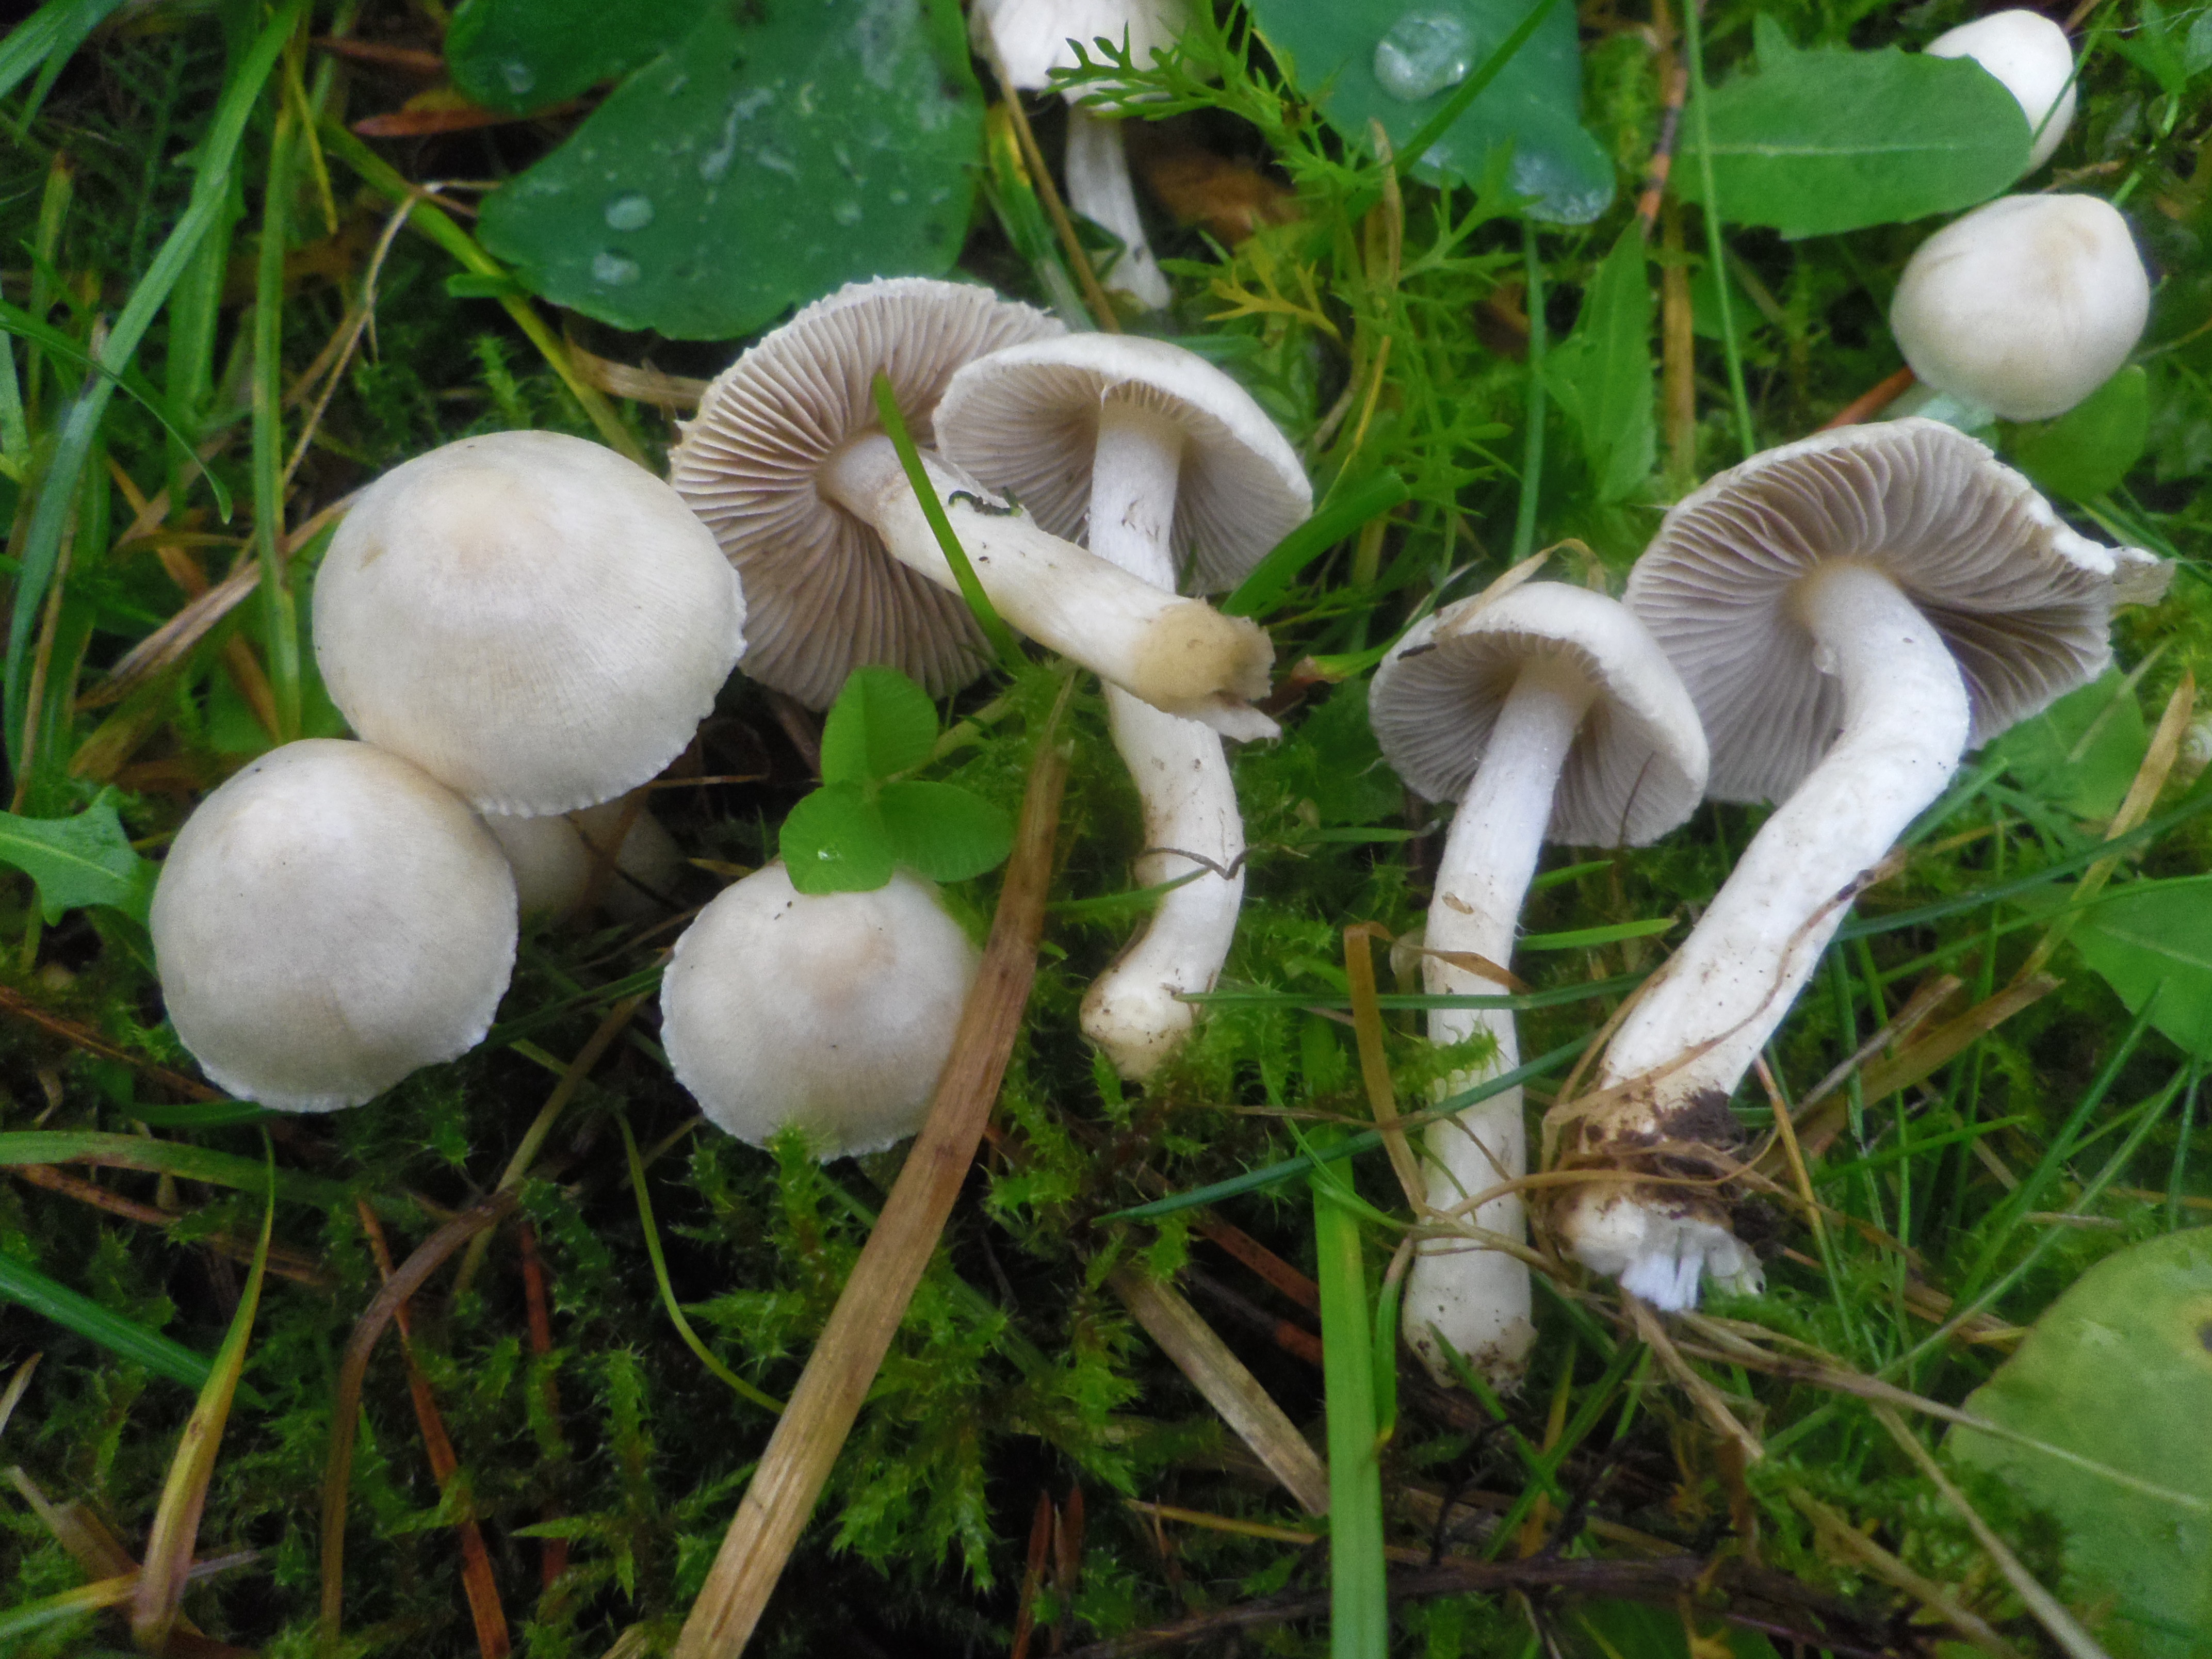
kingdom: Fungi
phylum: Basidiomycota
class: Agaricomycetes
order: Agaricales
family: Inocybaceae
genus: Inocybe
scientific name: Inocybe geophylla
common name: White fibrecap
